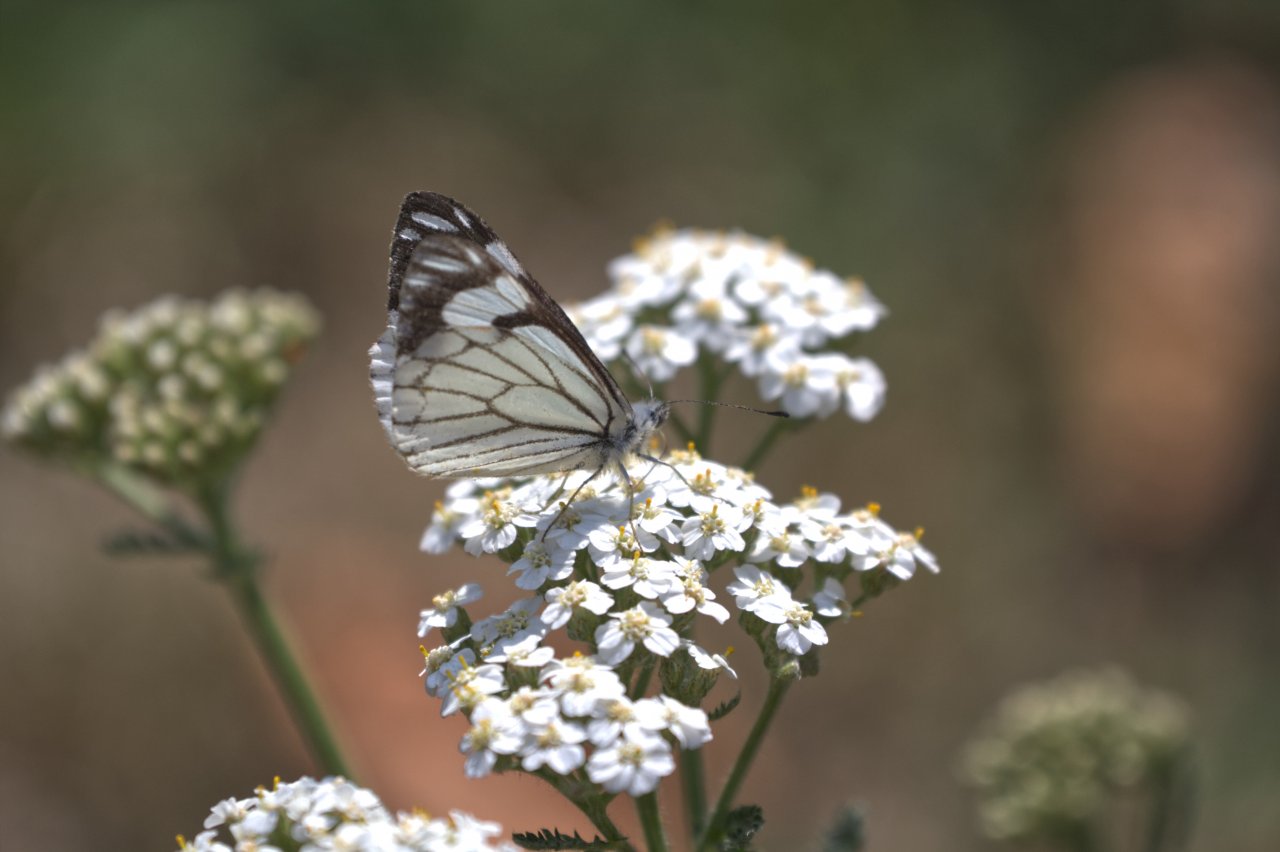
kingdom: Animalia
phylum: Arthropoda
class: Insecta
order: Lepidoptera
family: Pieridae
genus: Neophasia
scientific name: Neophasia menapia
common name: Pine White
